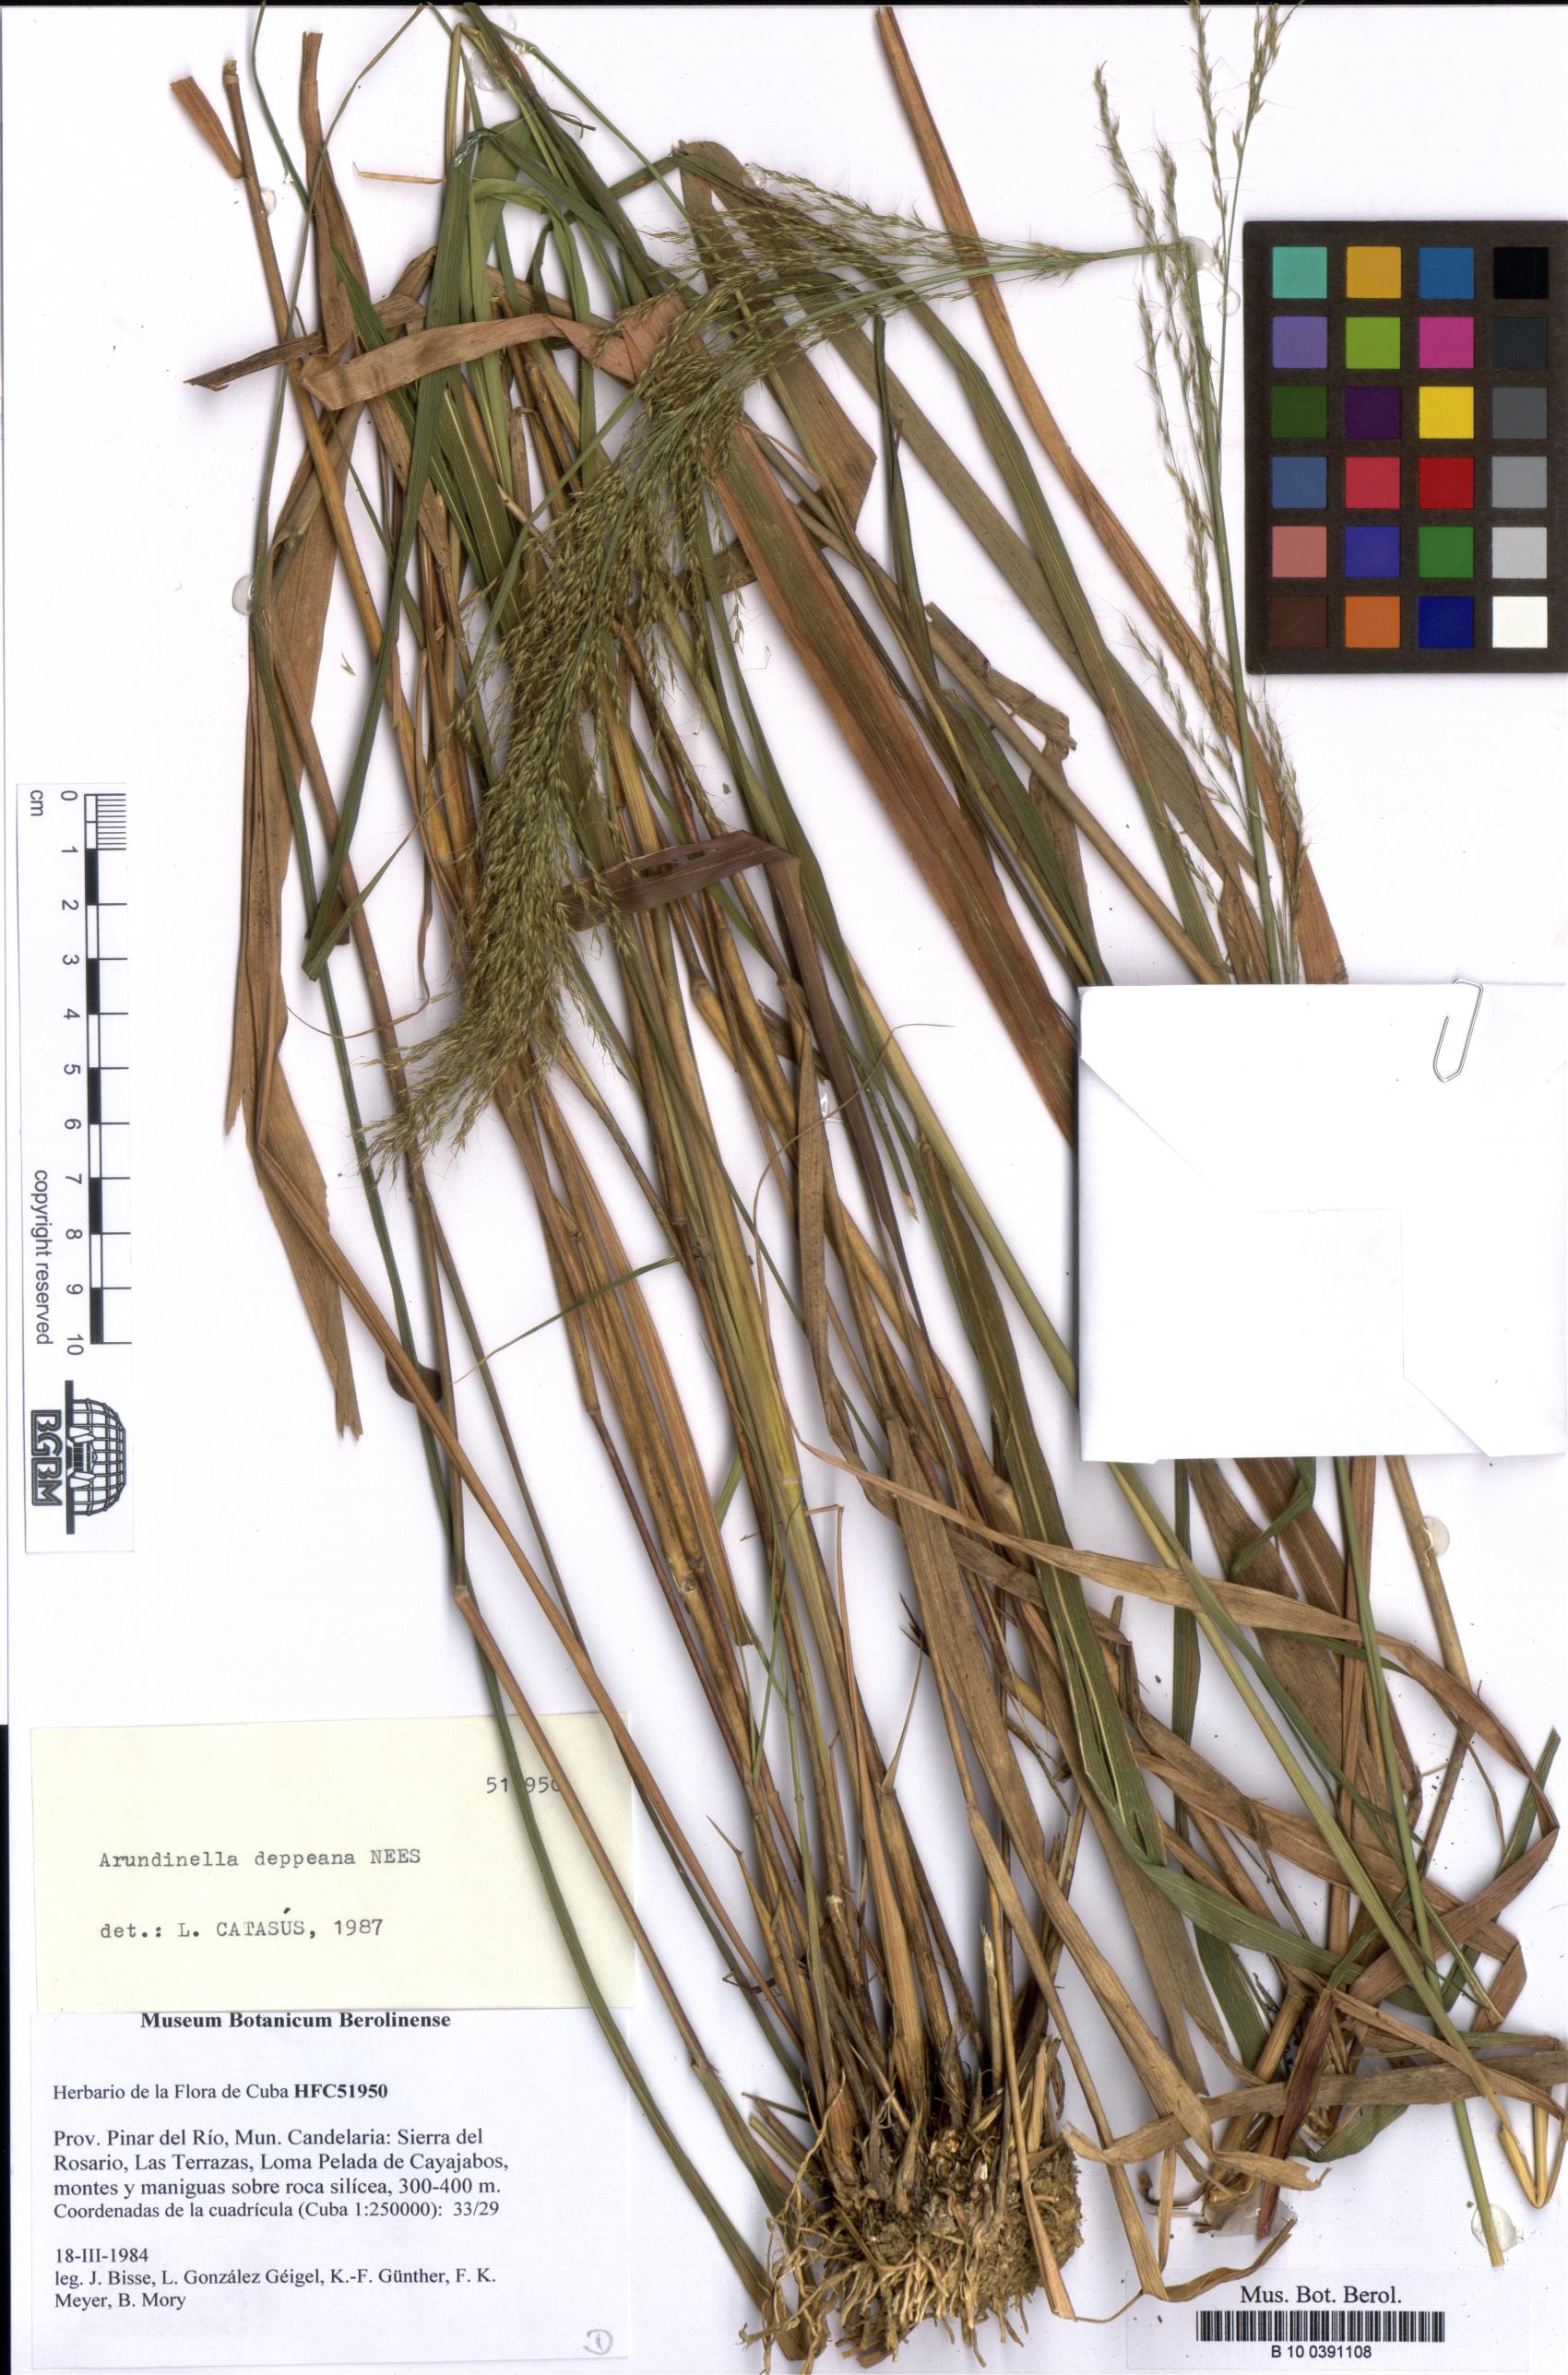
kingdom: Plantae
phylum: Tracheophyta
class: Liliopsida
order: Poales
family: Poaceae
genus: Arundinella
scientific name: Arundinella deppeana
